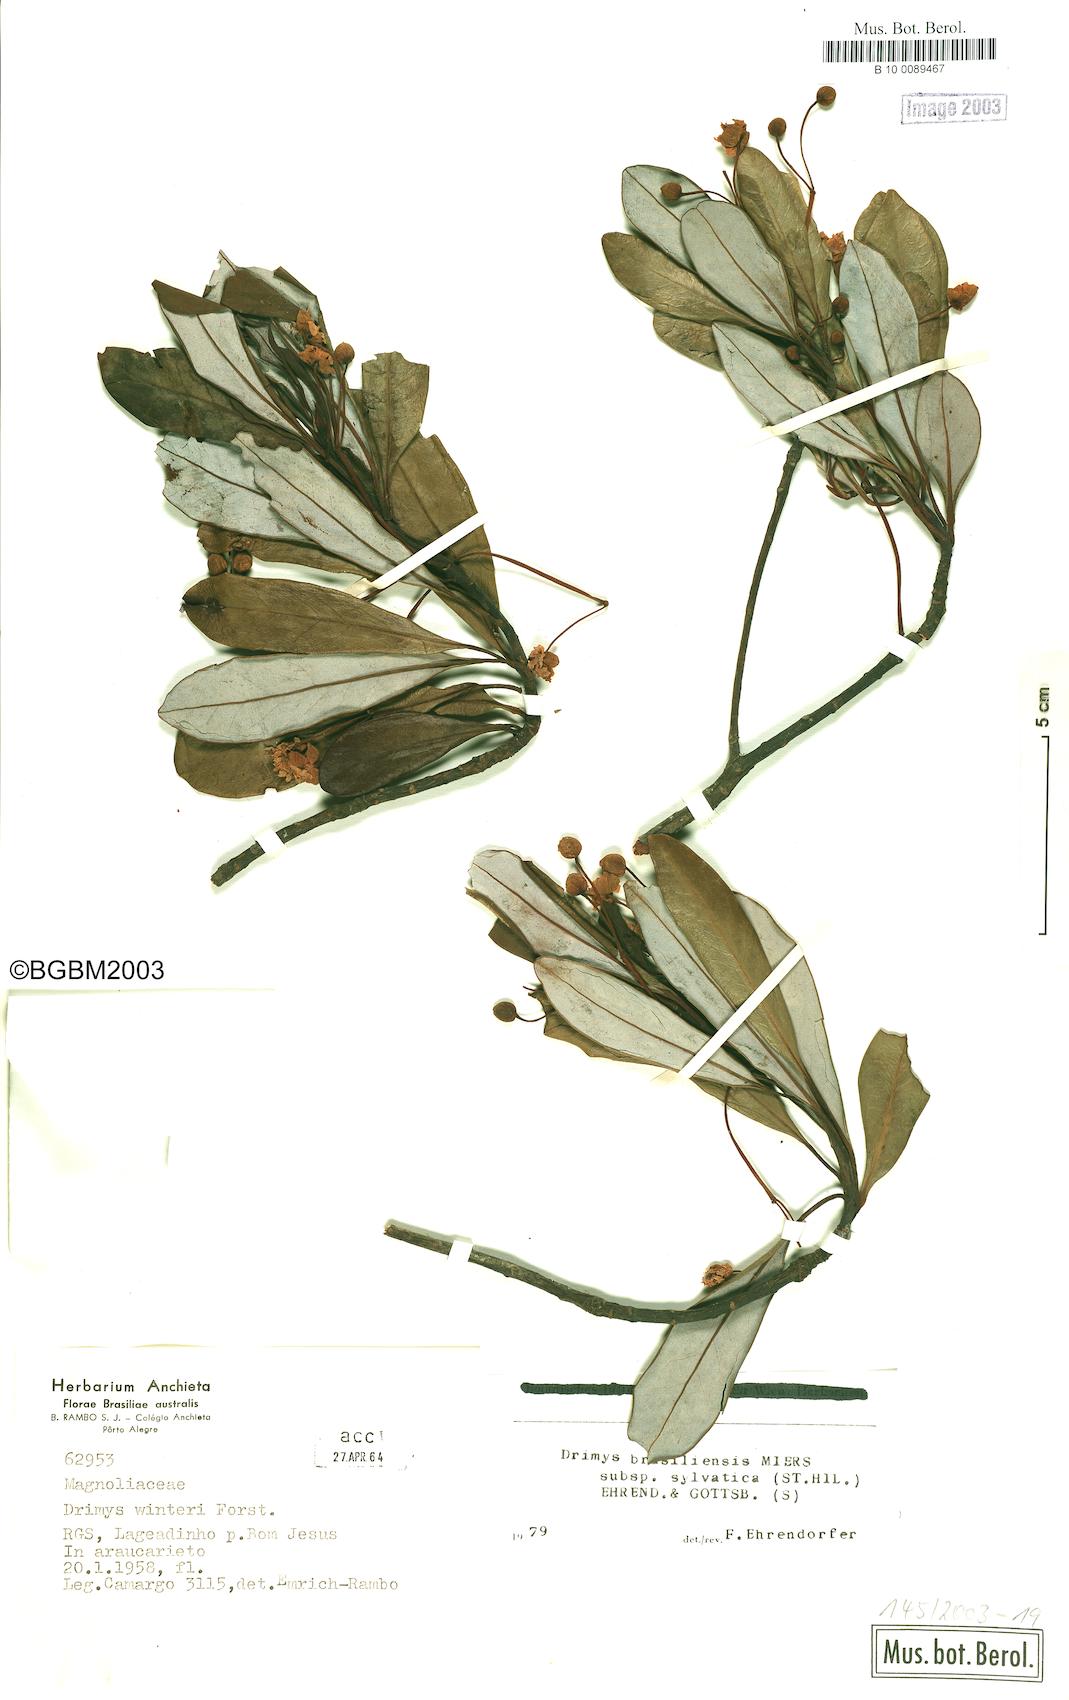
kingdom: Plantae
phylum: Tracheophyta
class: Magnoliopsida
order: Canellales
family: Winteraceae
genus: Drimys
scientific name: Drimys brasiliensis
